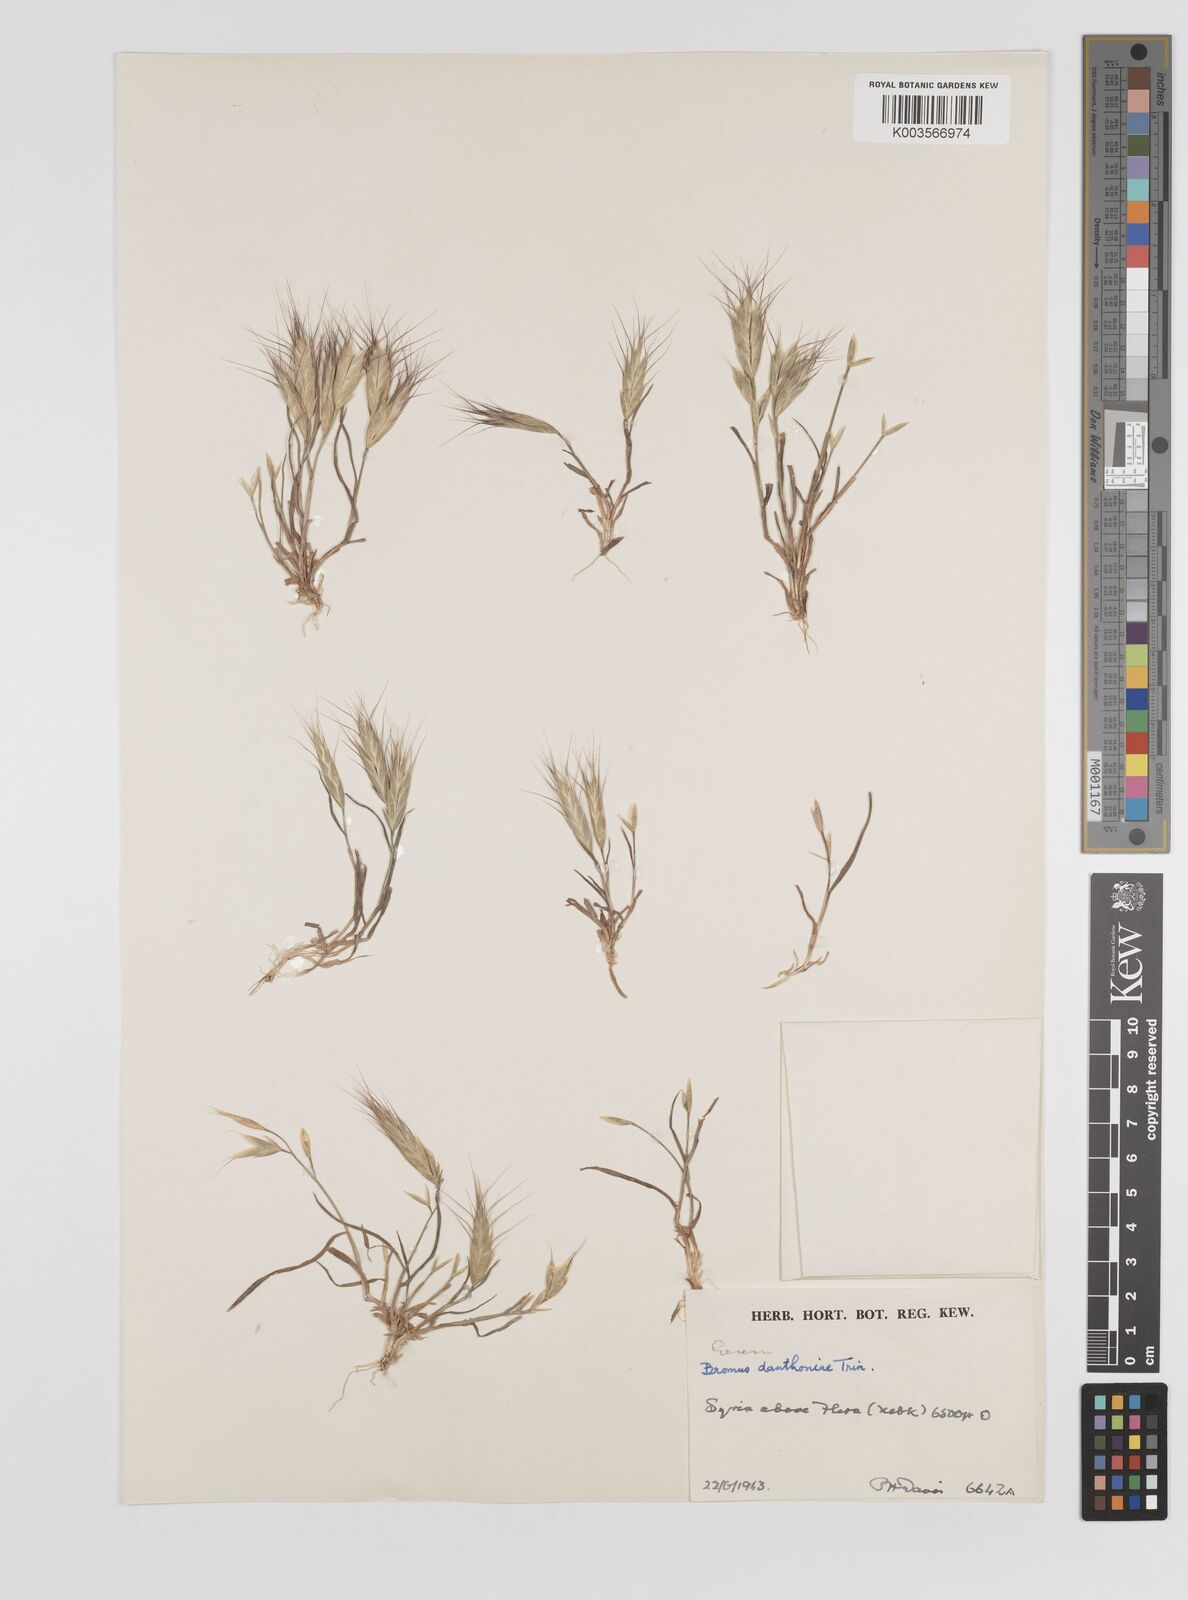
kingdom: Plantae
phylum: Tracheophyta
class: Liliopsida
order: Poales
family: Poaceae
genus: Bromus
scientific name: Bromus danthoniae
